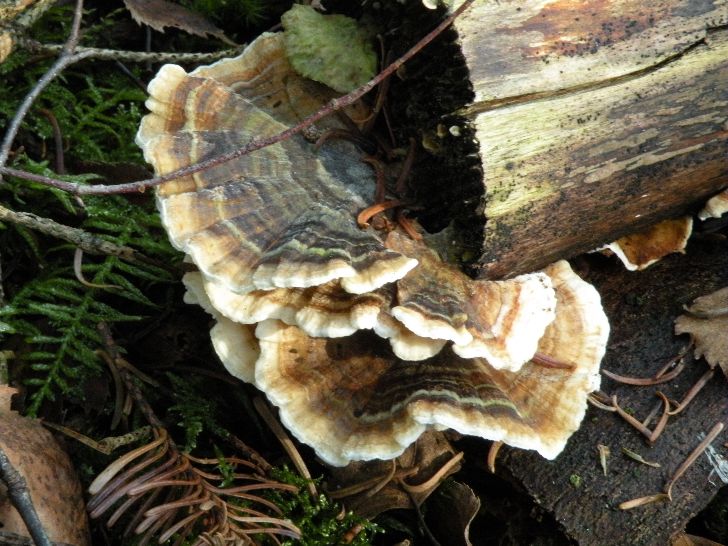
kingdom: Fungi
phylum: Basidiomycota
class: Agaricomycetes
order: Polyporales
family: Polyporaceae
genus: Trametes
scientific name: Trametes versicolor
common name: broget læderporesvamp
